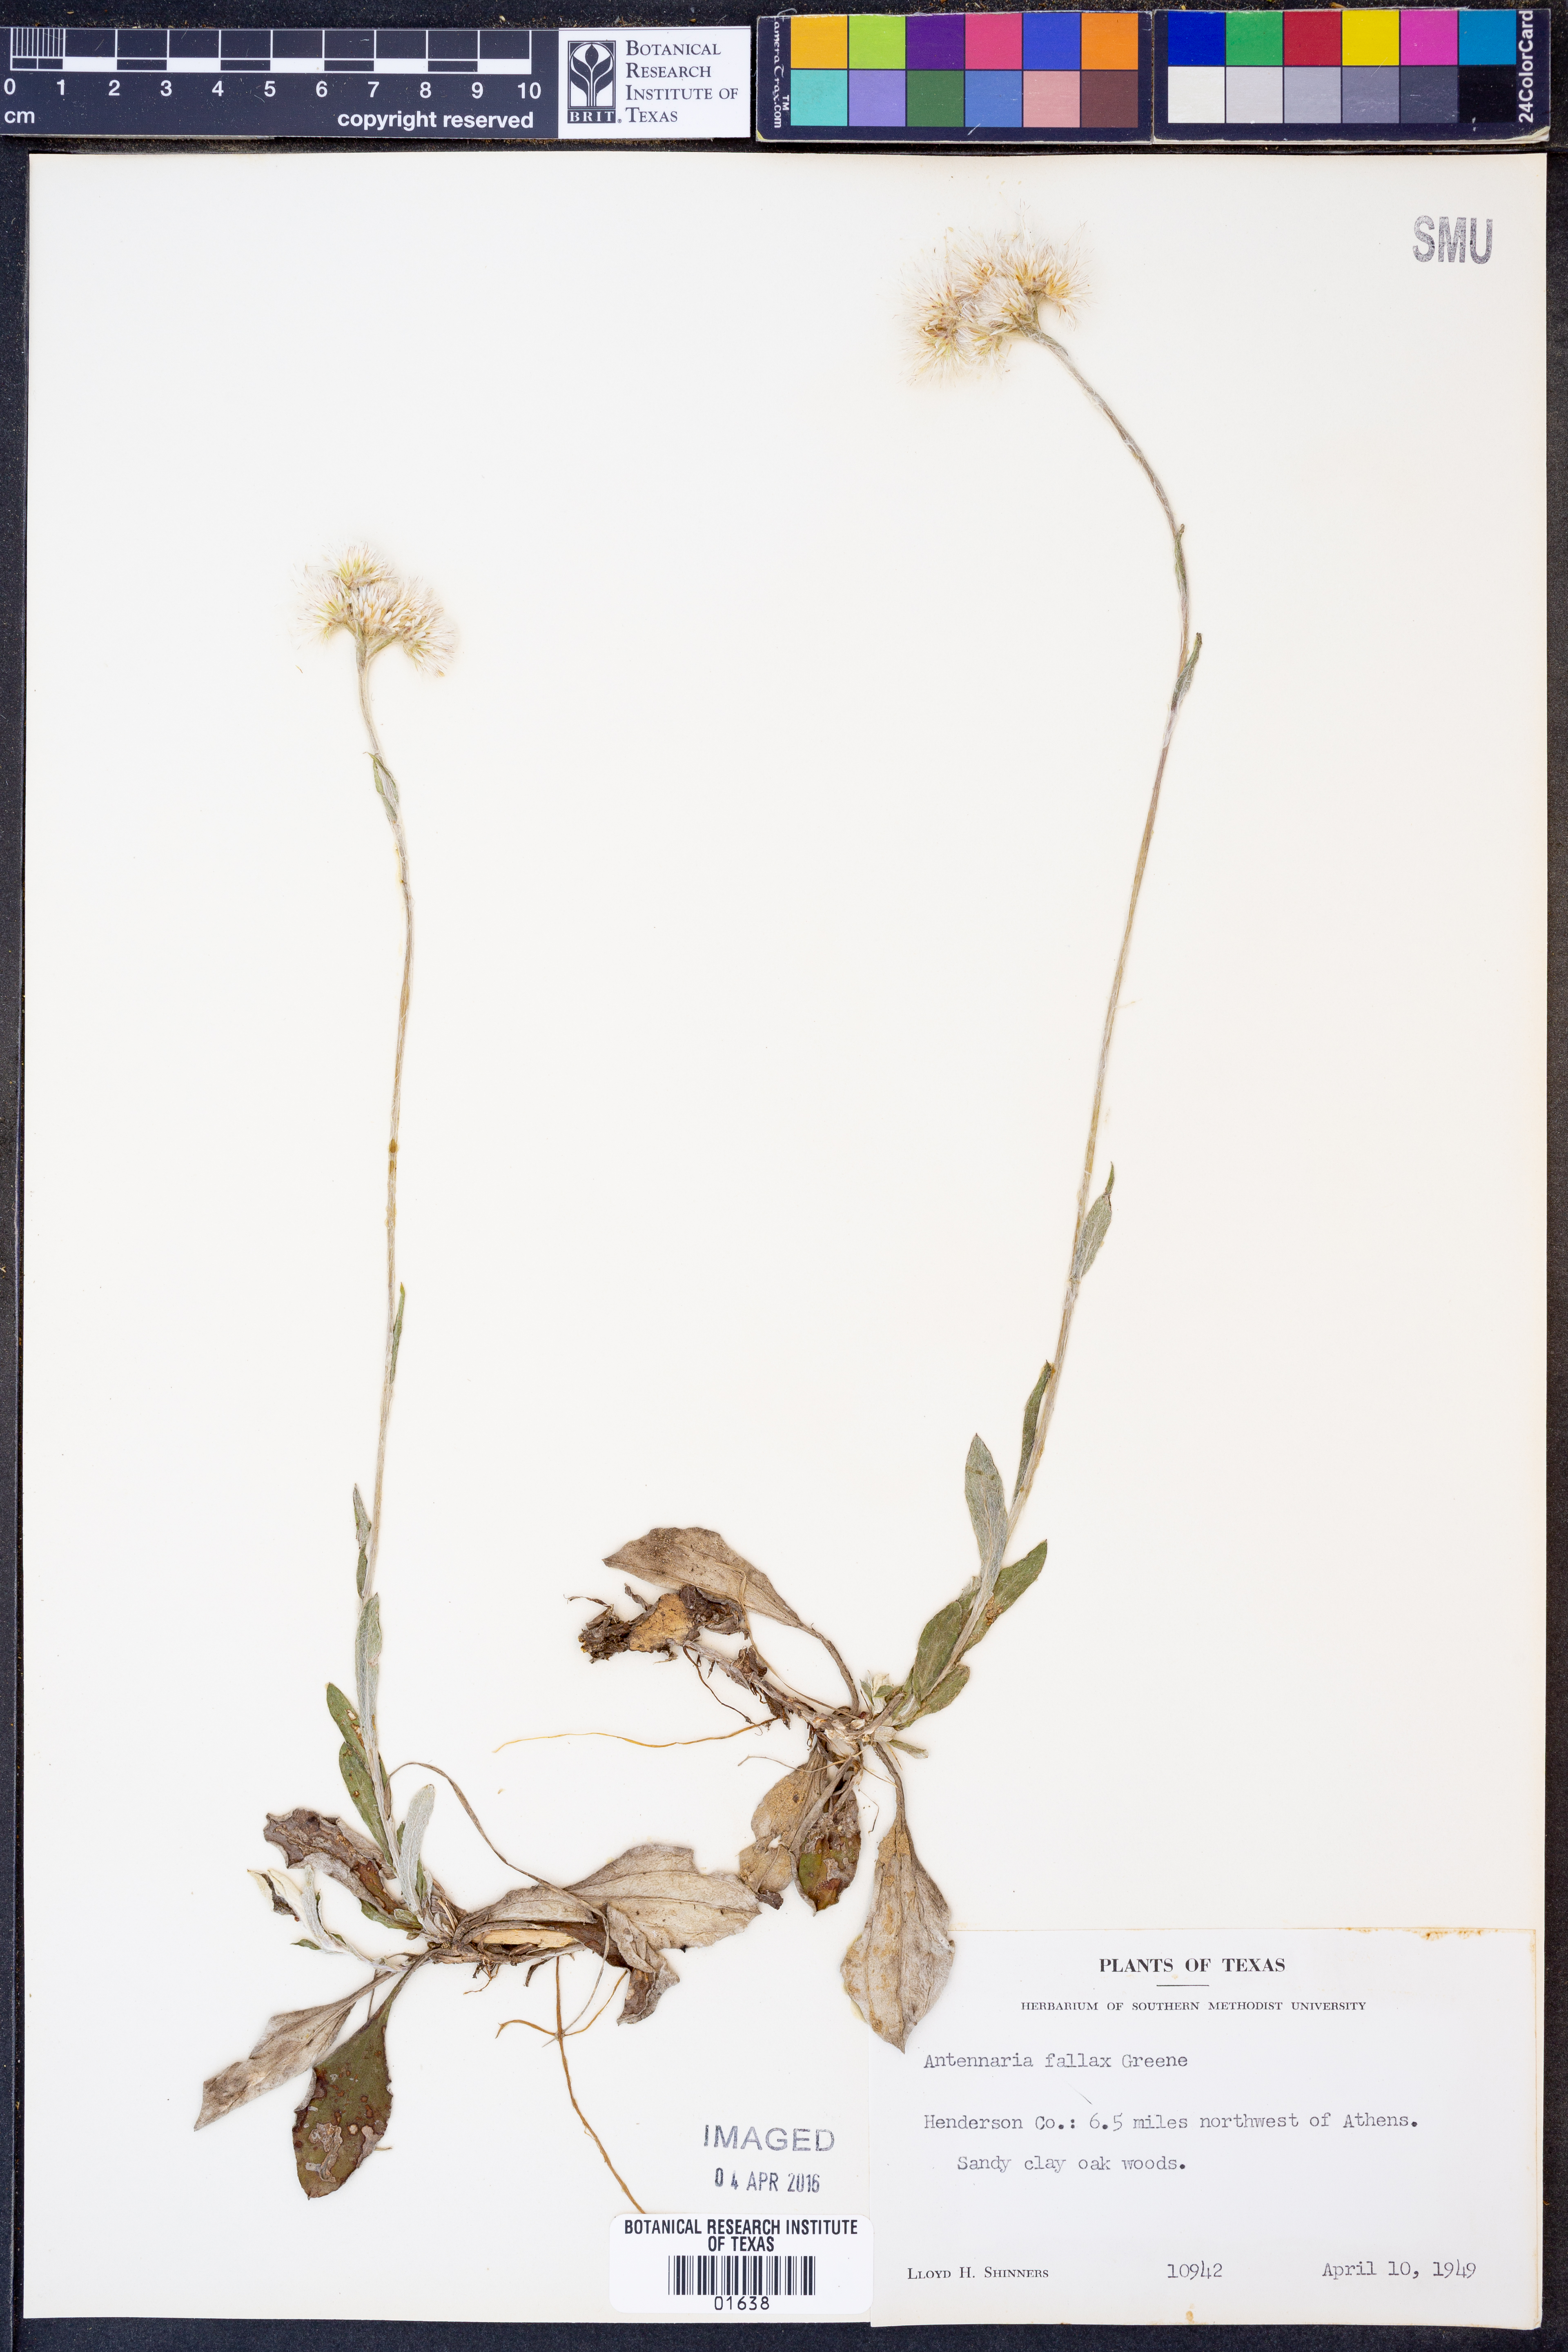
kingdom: Plantae
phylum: Tracheophyta
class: Magnoliopsida
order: Asterales
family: Asteraceae
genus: Antennaria
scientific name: Antennaria parlinii
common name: Parlin's pussytoes
